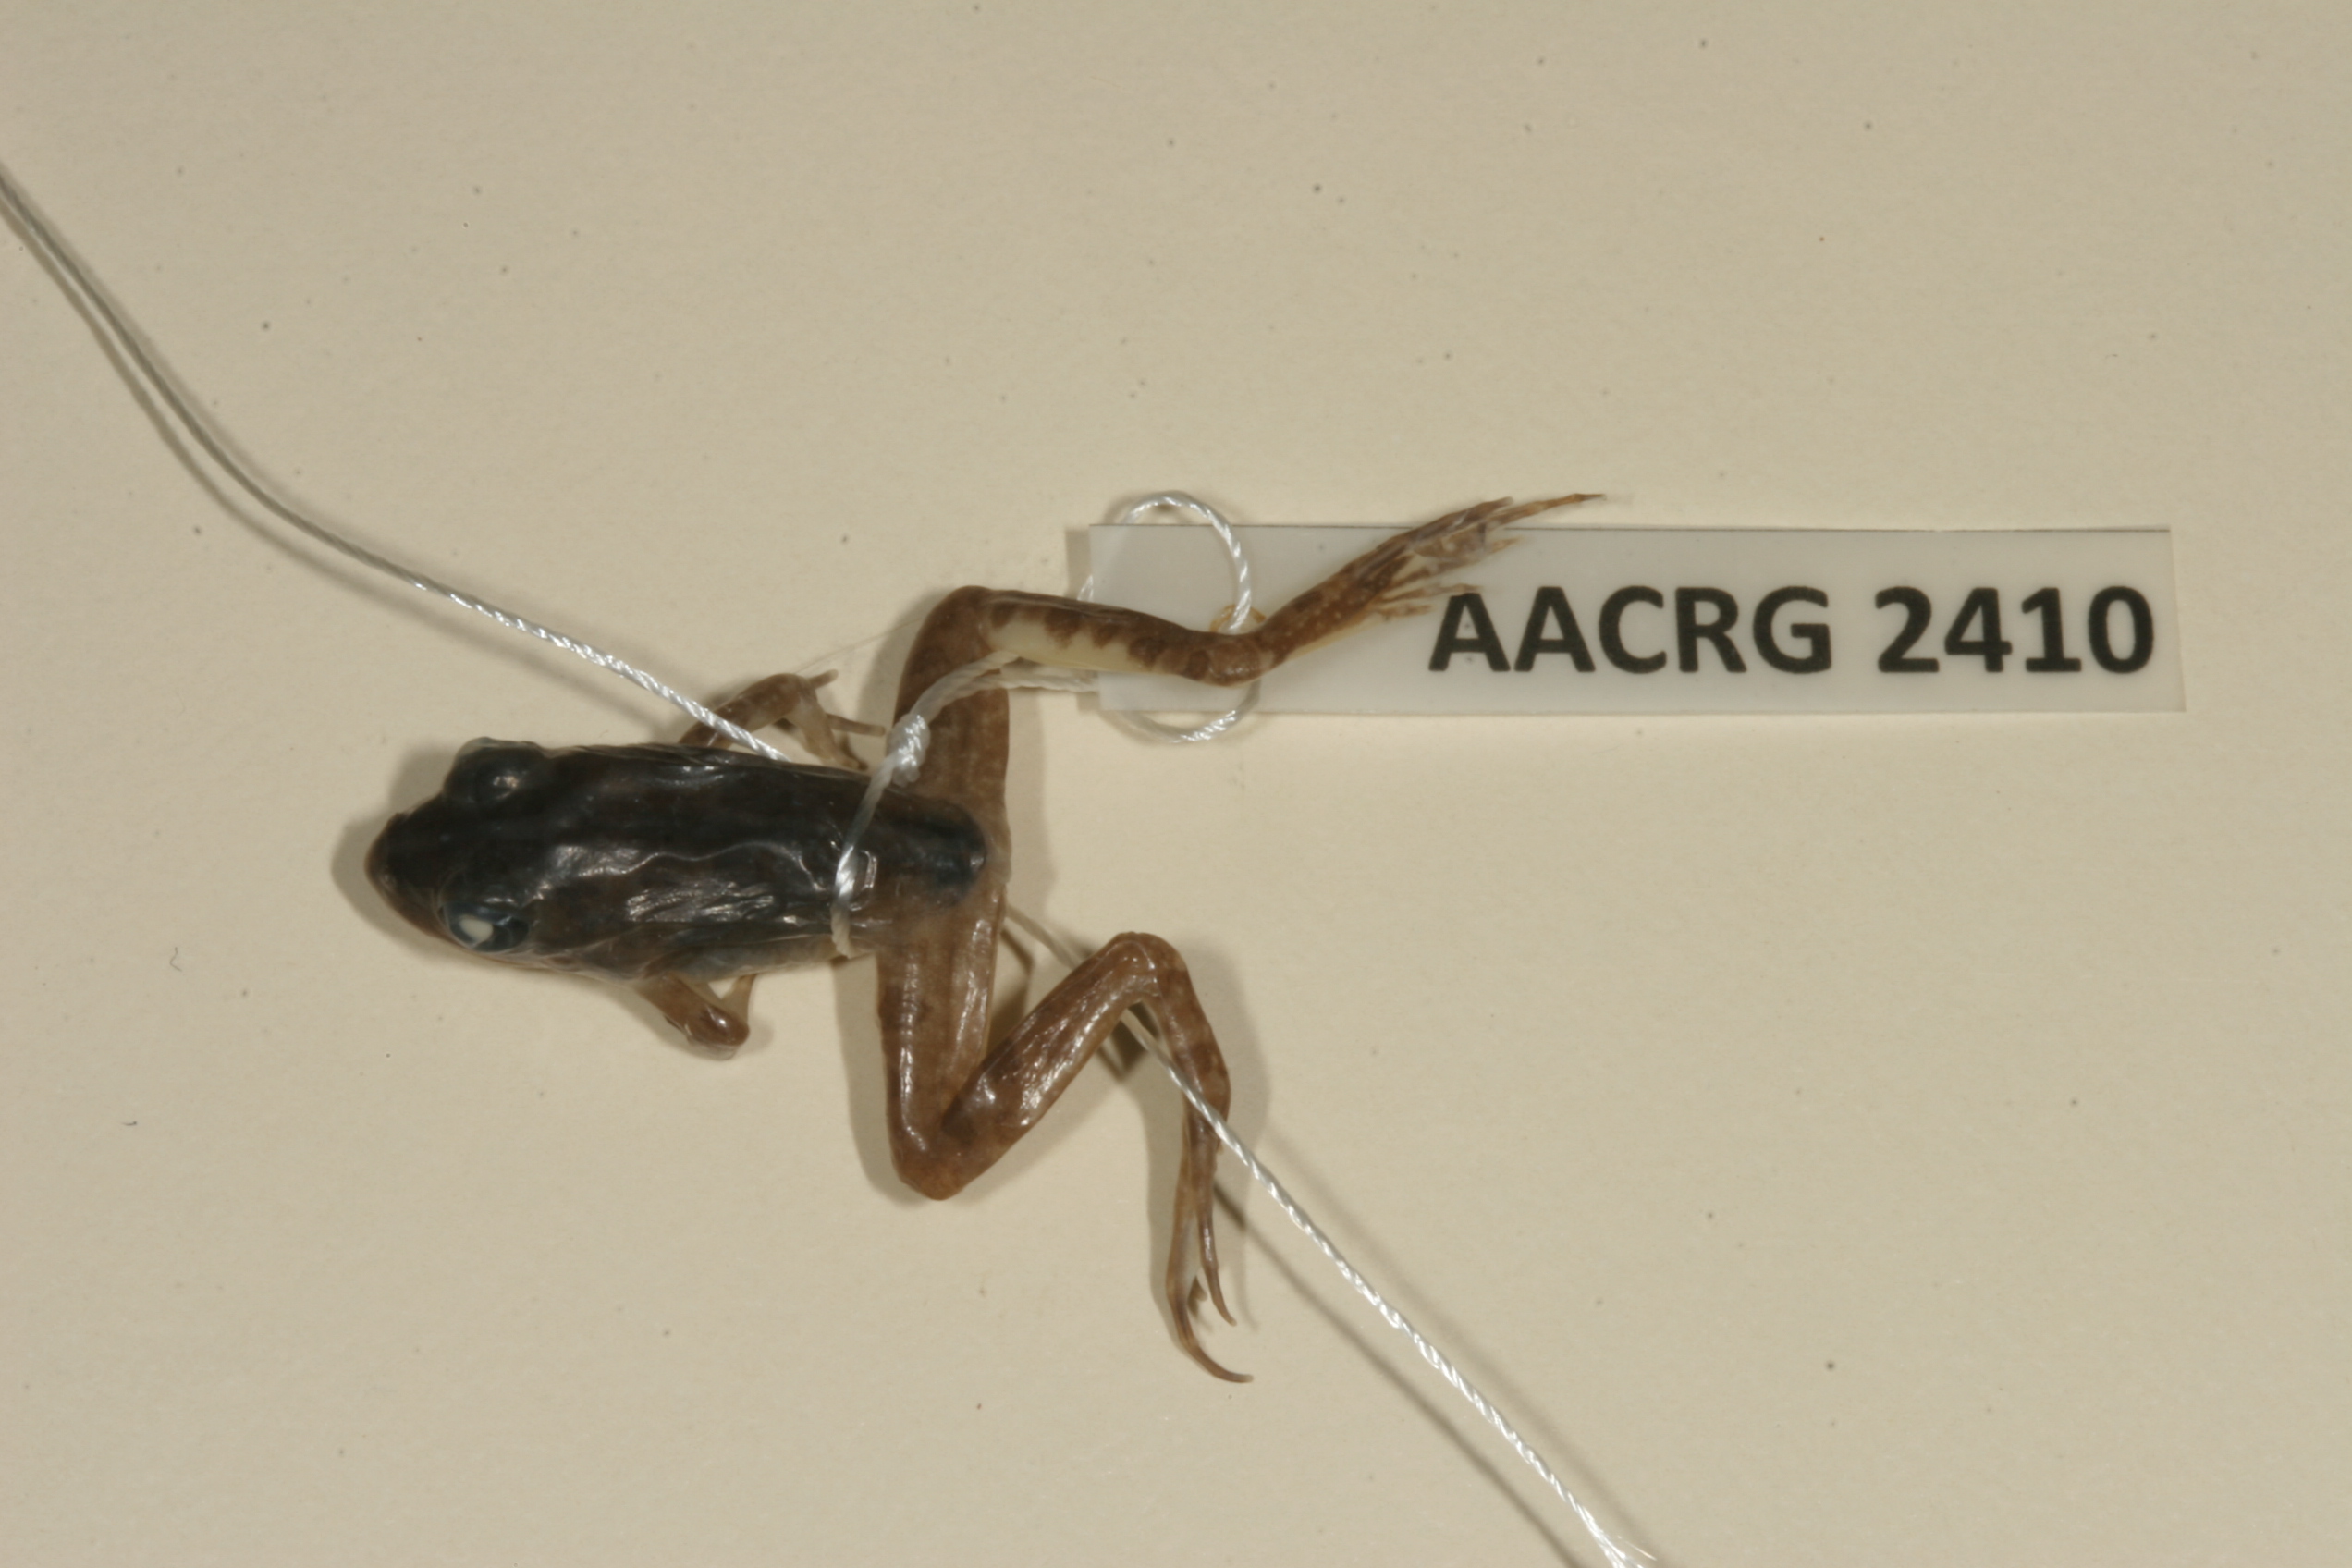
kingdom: Animalia
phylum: Chordata
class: Amphibia
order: Anura
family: Pyxicephalidae
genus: Amietia
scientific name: Amietia delalandii
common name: Delalande's river frog
